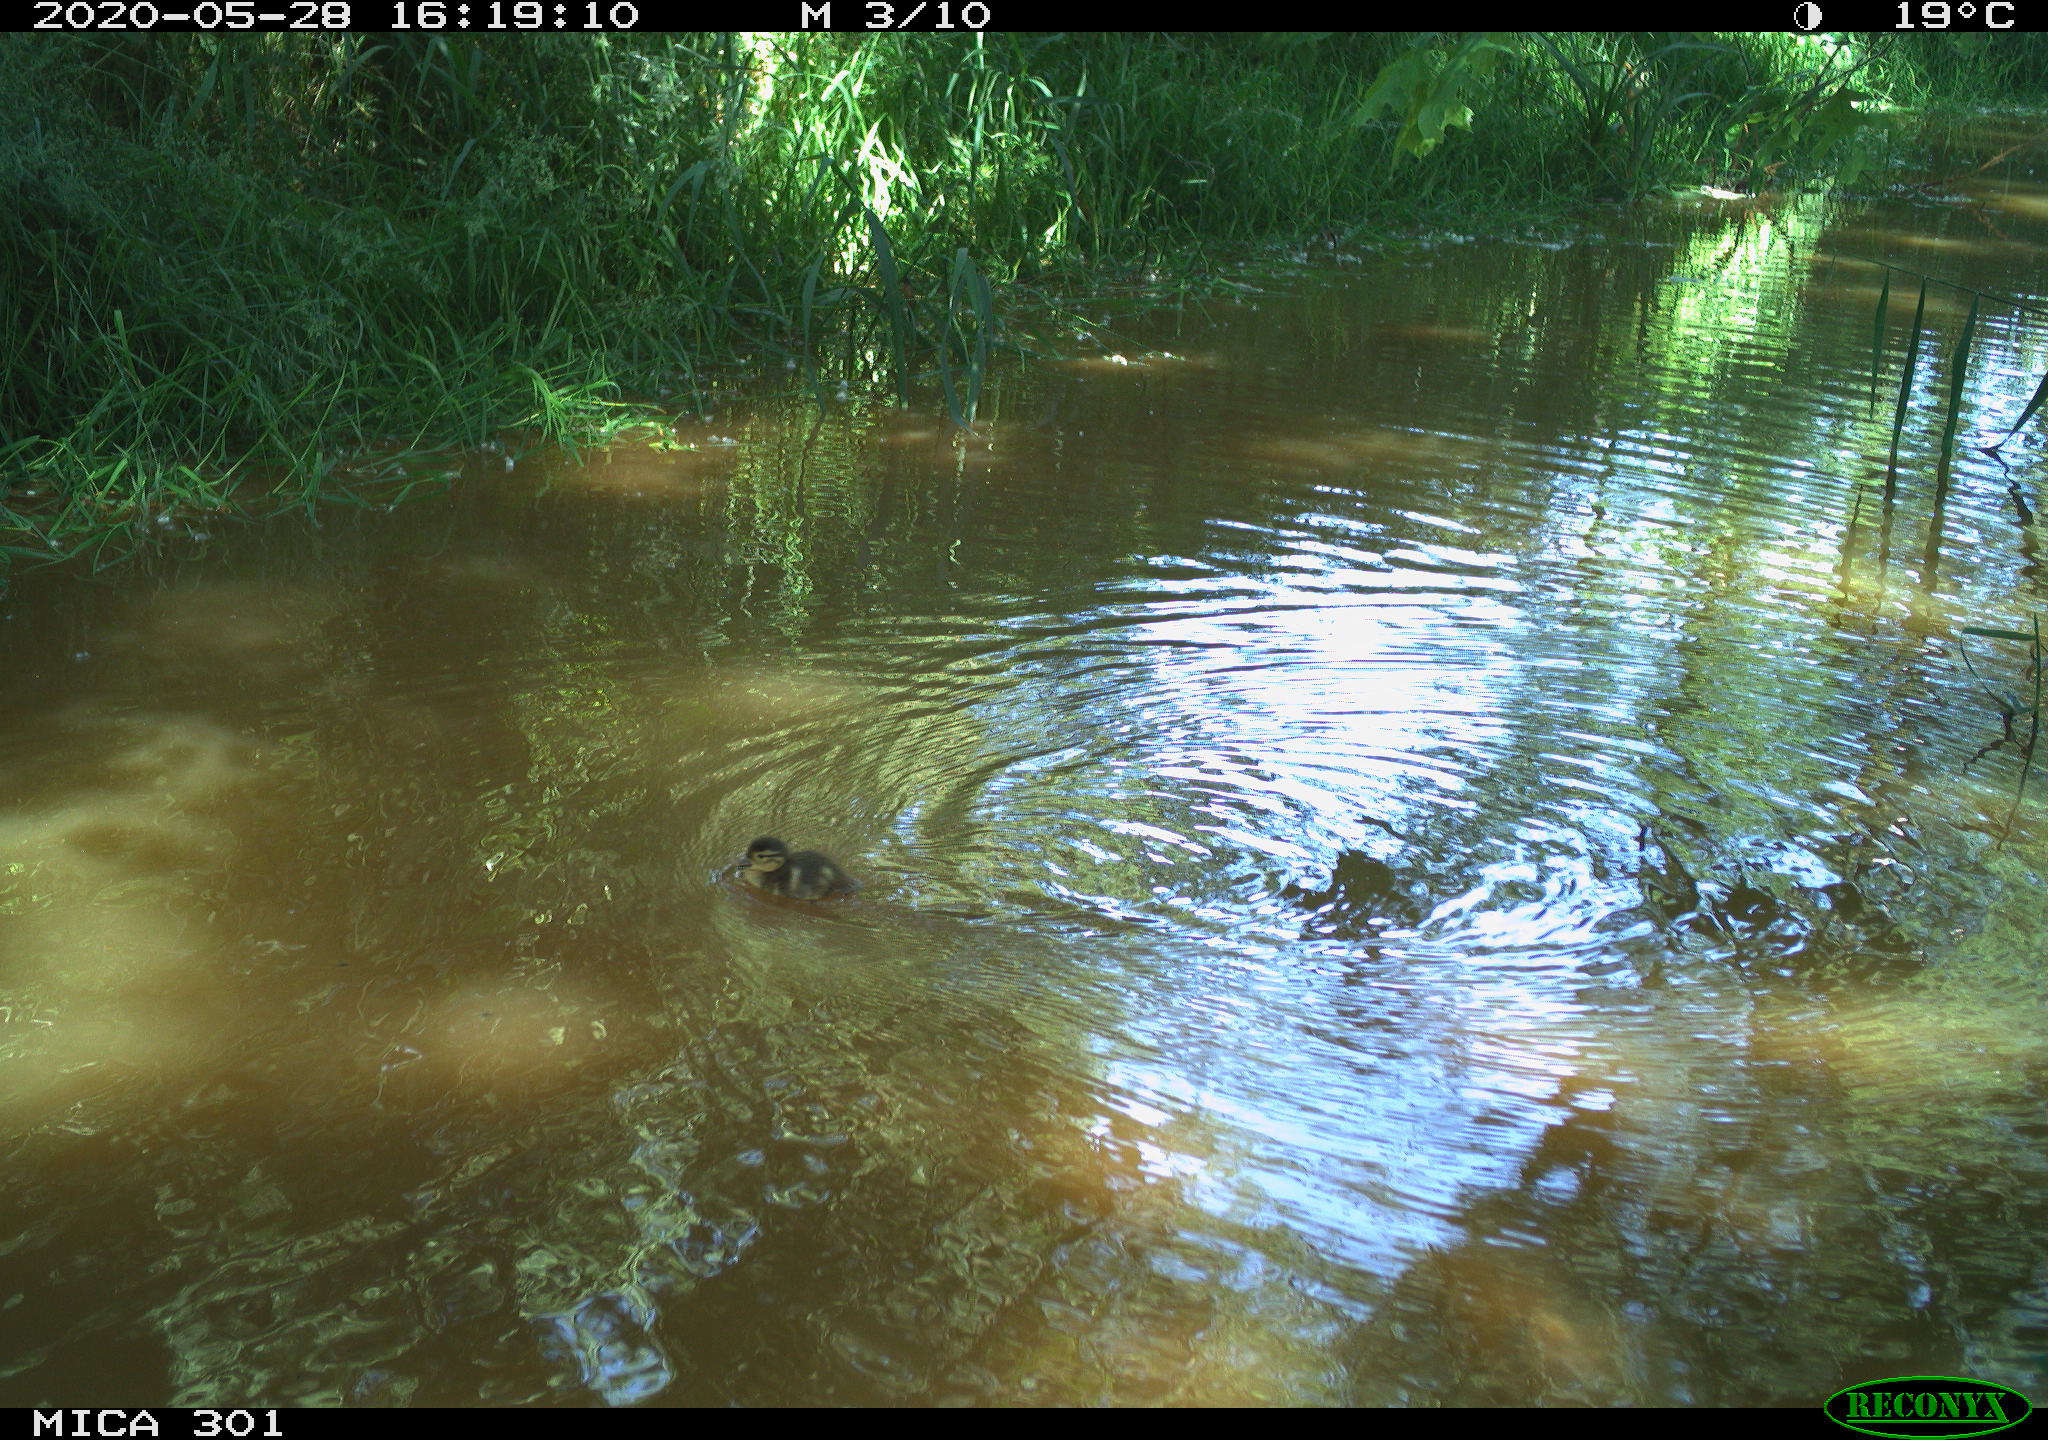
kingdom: Animalia
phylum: Chordata
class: Aves
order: Anseriformes
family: Anatidae
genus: Anas
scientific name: Anas platyrhynchos
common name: Mallard
